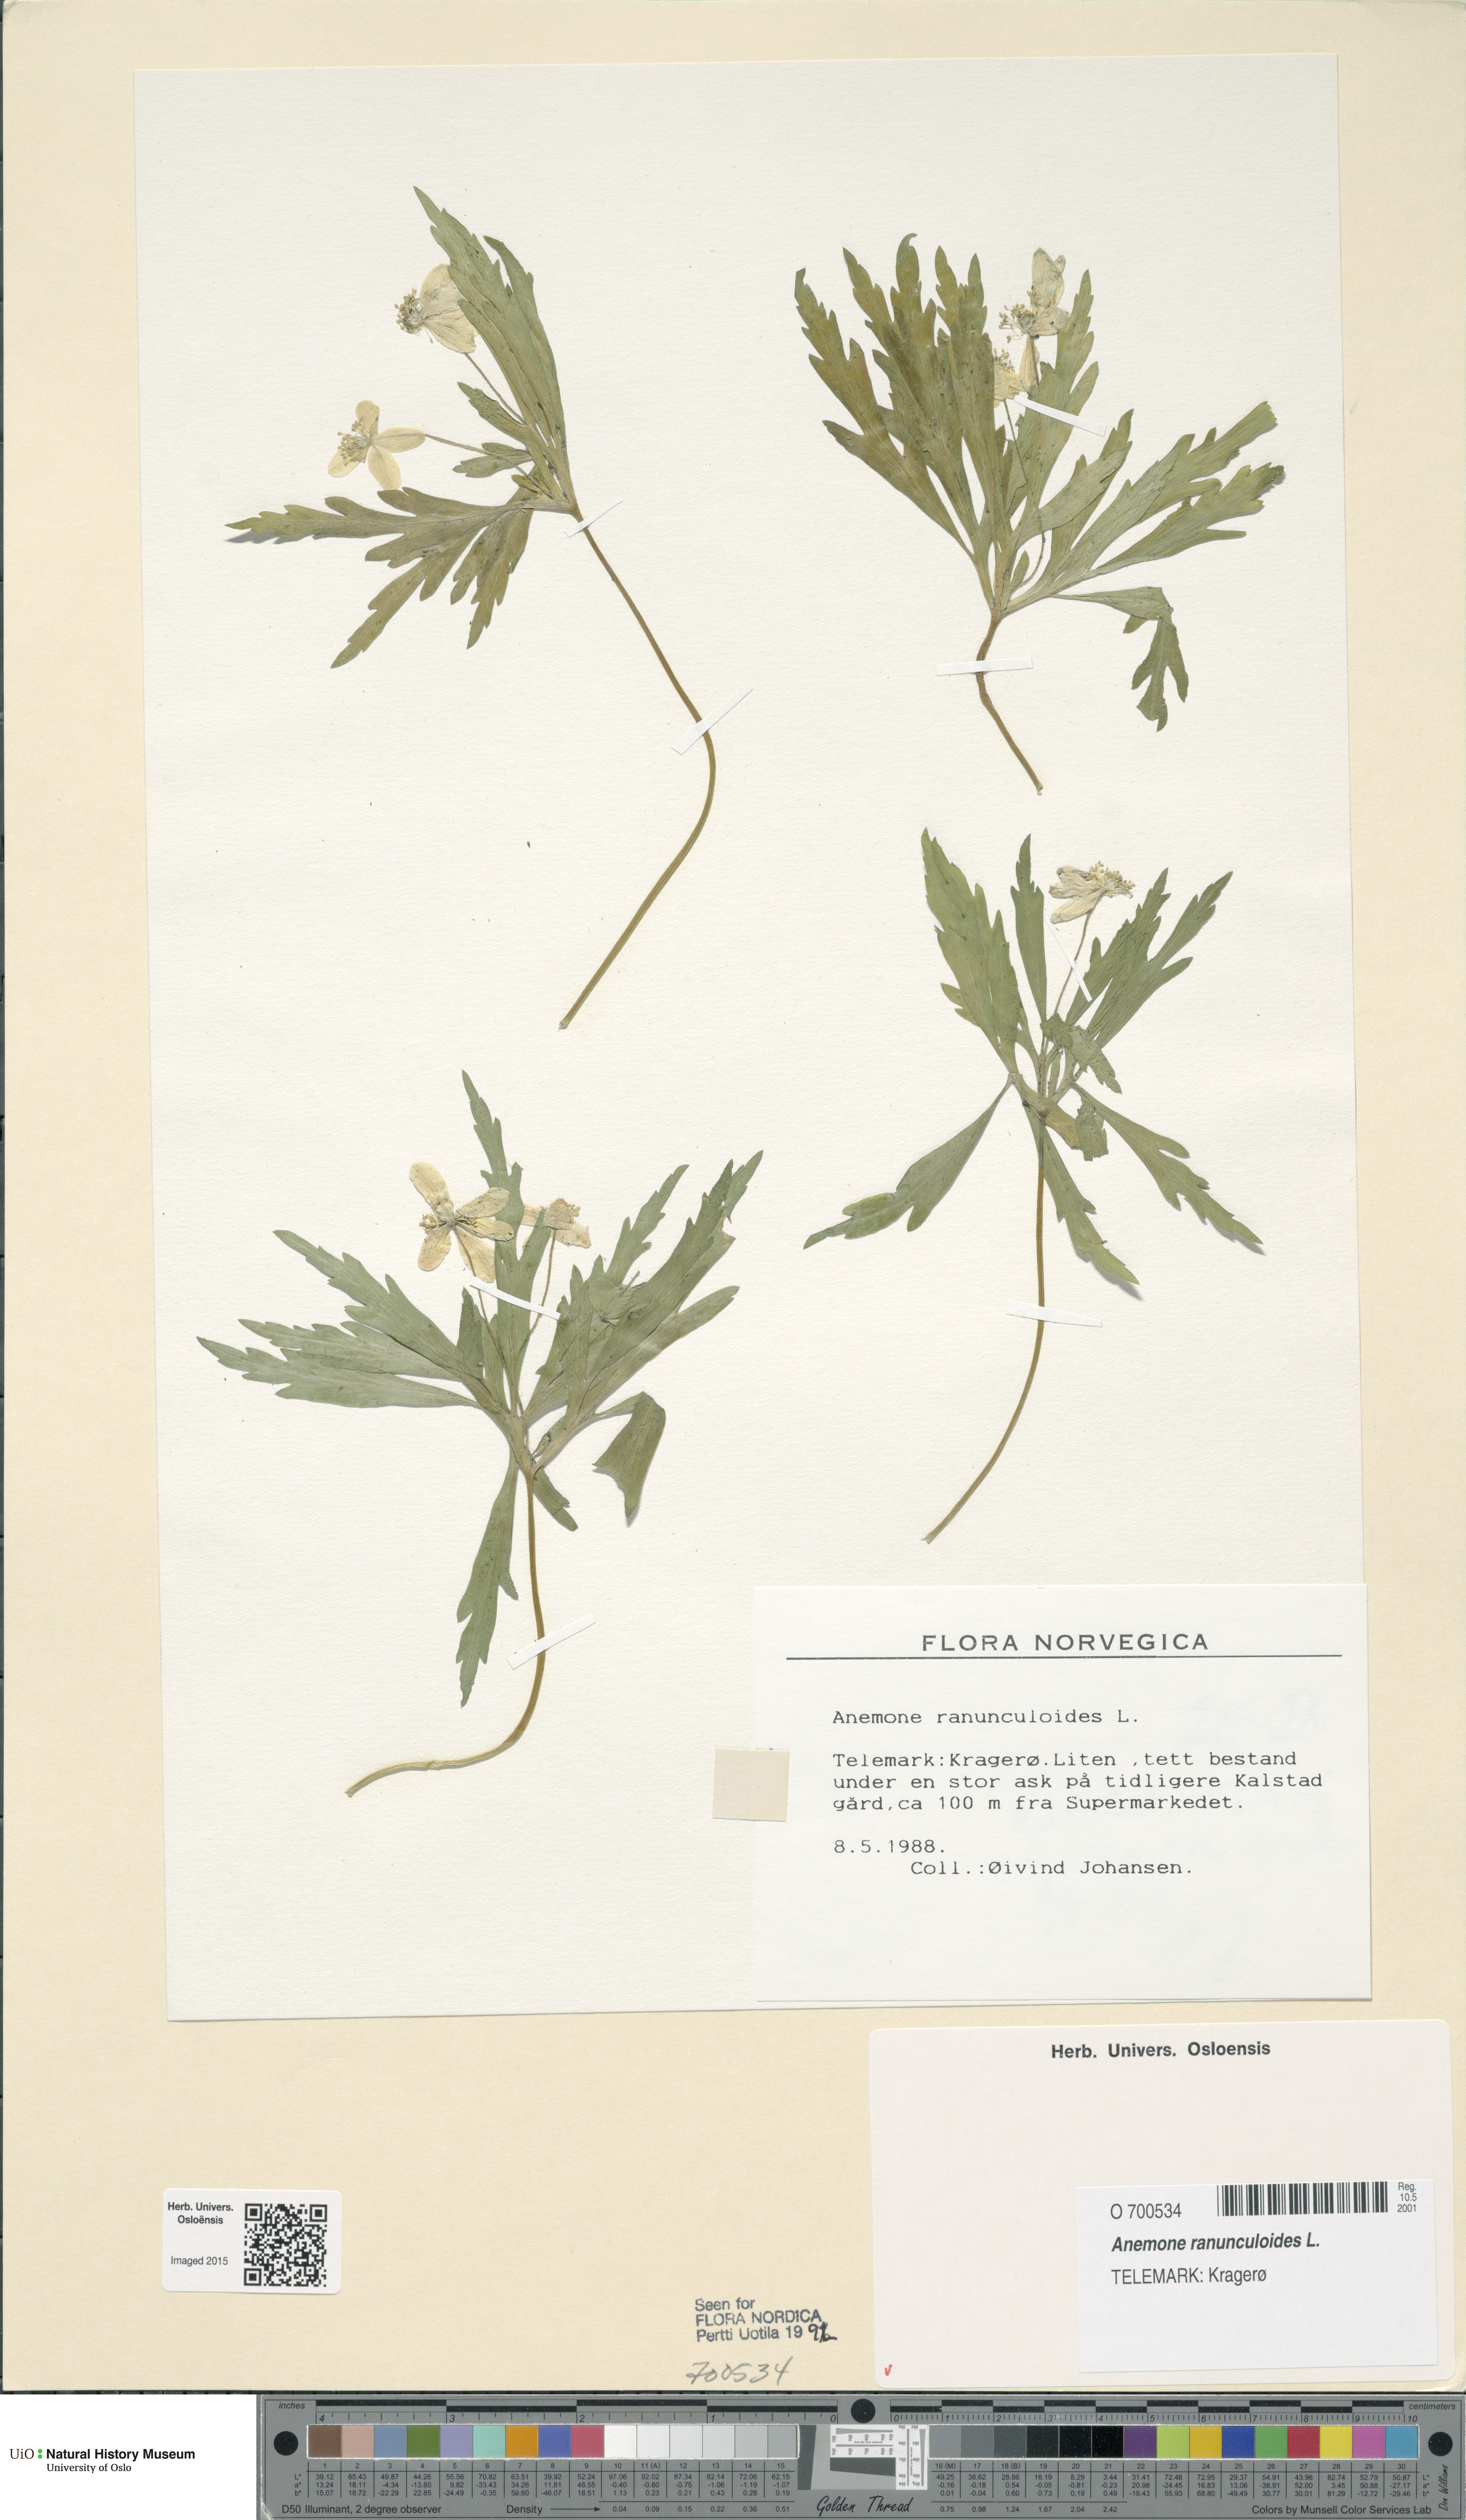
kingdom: Plantae
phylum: Tracheophyta
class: Magnoliopsida
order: Ranunculales
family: Ranunculaceae
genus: Anemone
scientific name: Anemone ranunculoides
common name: Yellow anemone
